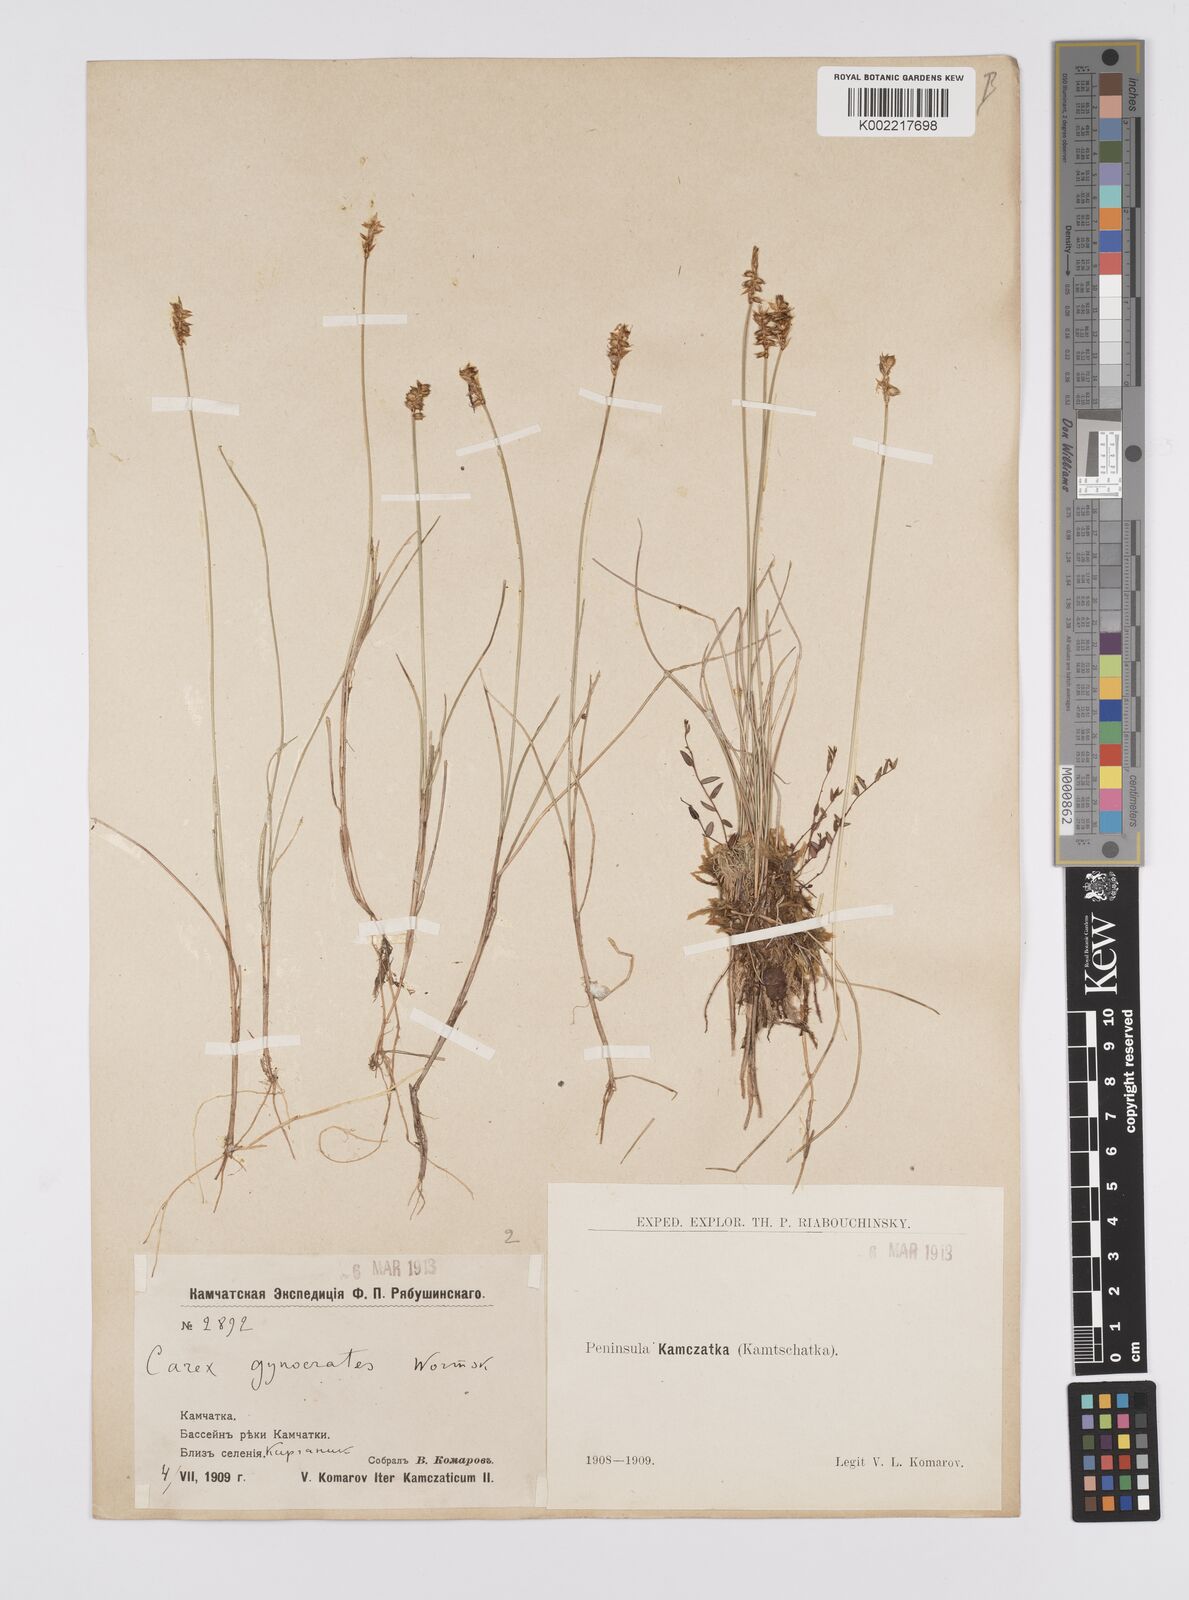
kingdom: Plantae
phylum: Tracheophyta
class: Liliopsida
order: Poales
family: Cyperaceae
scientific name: Cyperaceae
